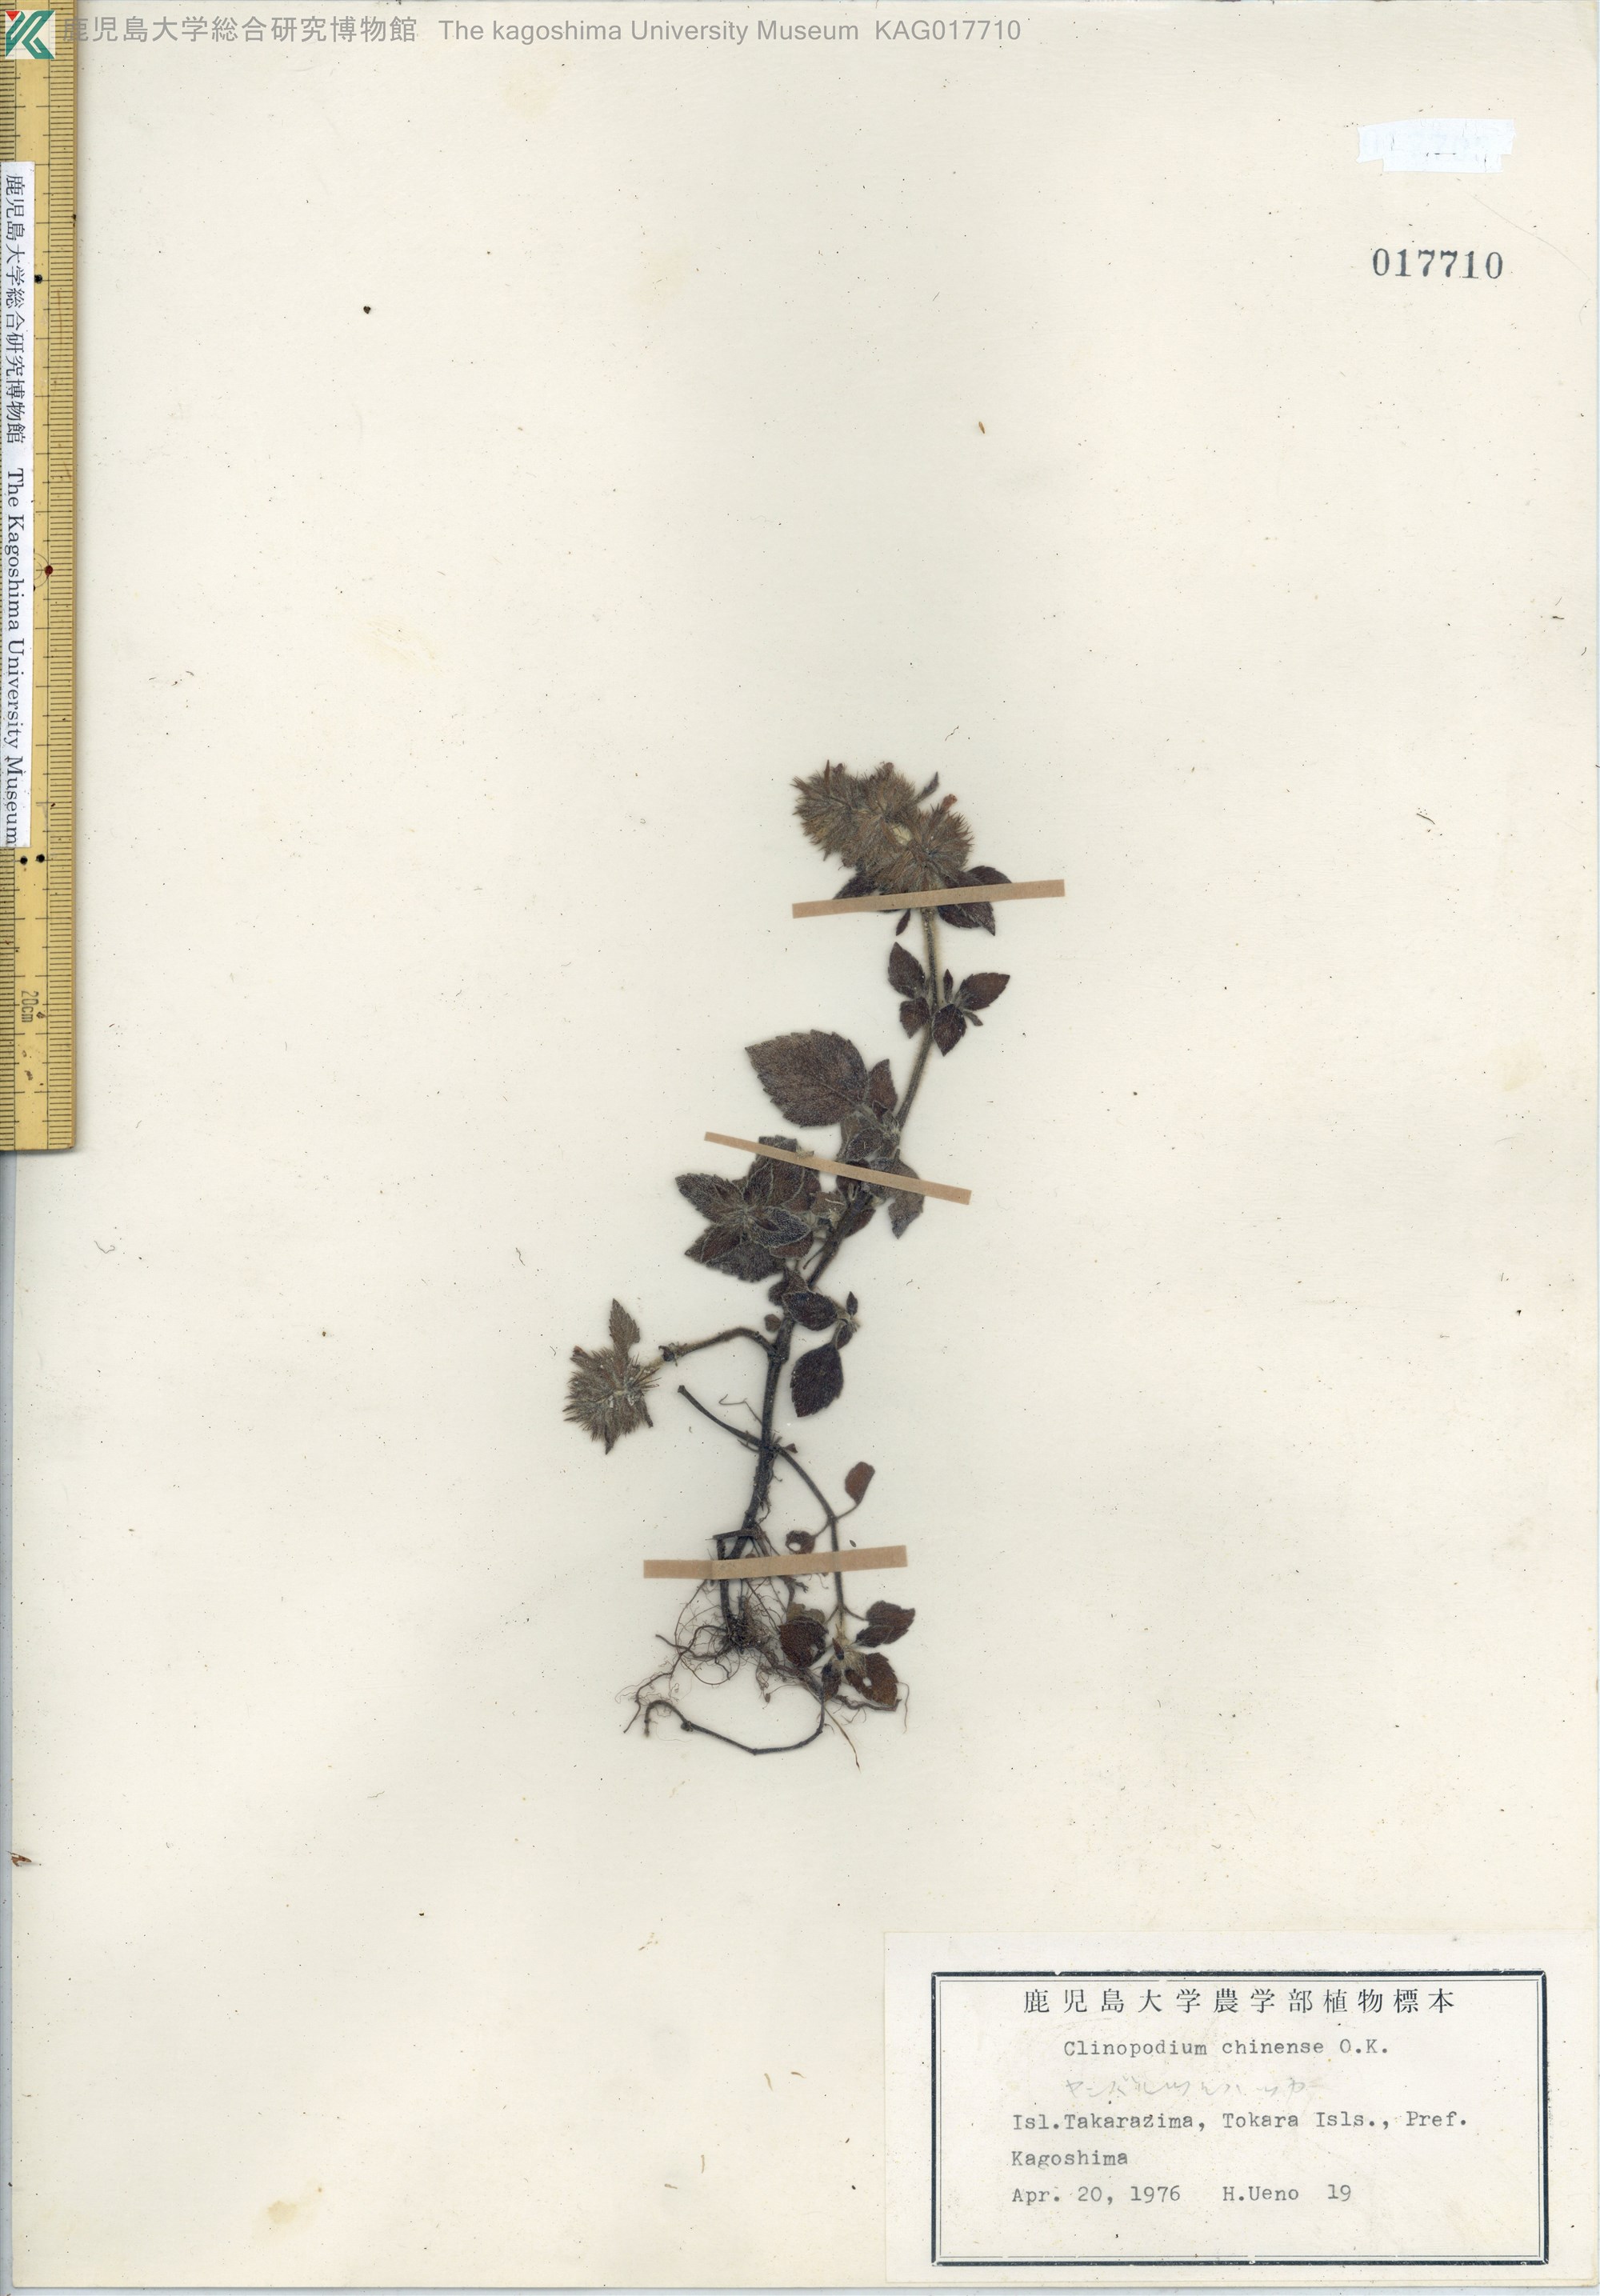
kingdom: Plantae
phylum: Tracheophyta
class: Magnoliopsida
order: Lamiales
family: Lamiaceae
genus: Clinopodium
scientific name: Clinopodium chinense
